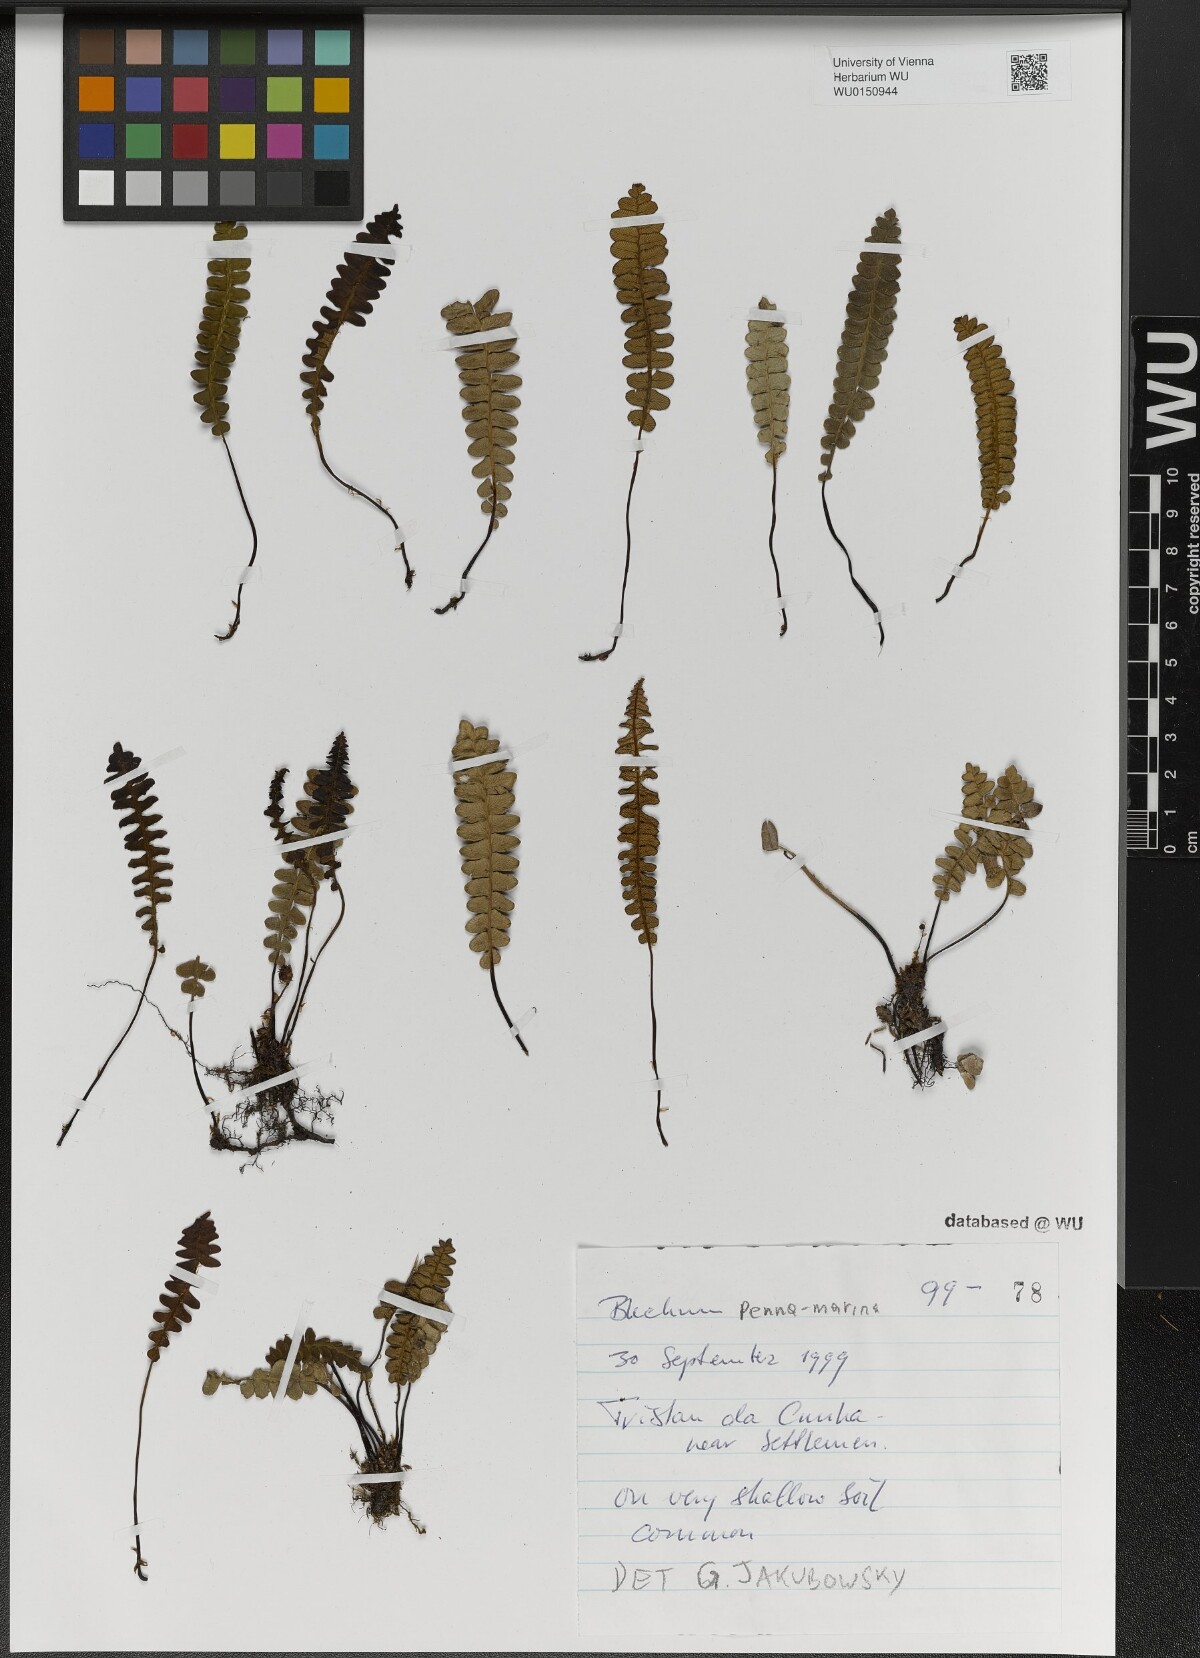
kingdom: Plantae
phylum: Tracheophyta
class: Polypodiopsida
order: Polypodiales
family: Blechnaceae
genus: Austroblechnum
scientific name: Austroblechnum penna-marina
